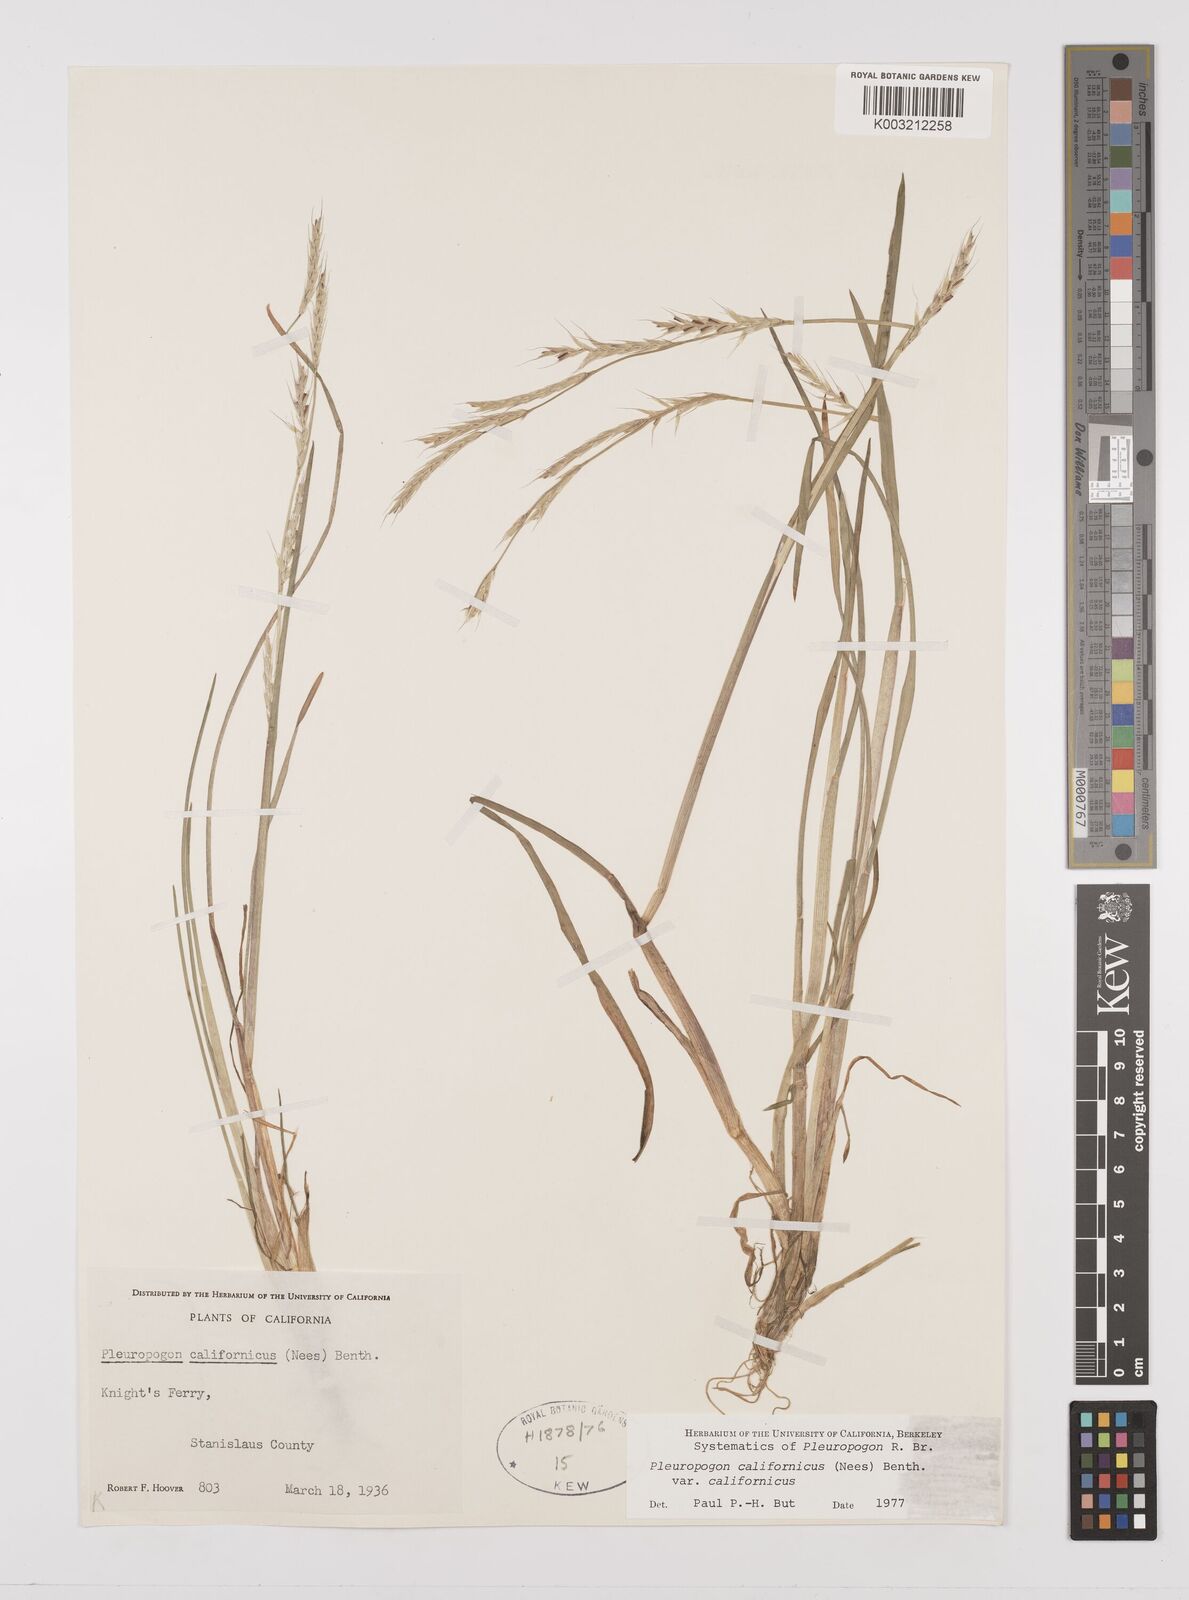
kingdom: Plantae
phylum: Tracheophyta
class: Liliopsida
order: Poales
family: Poaceae
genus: Pleuropogon
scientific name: Pleuropogon californicus
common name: California semaphore grass
